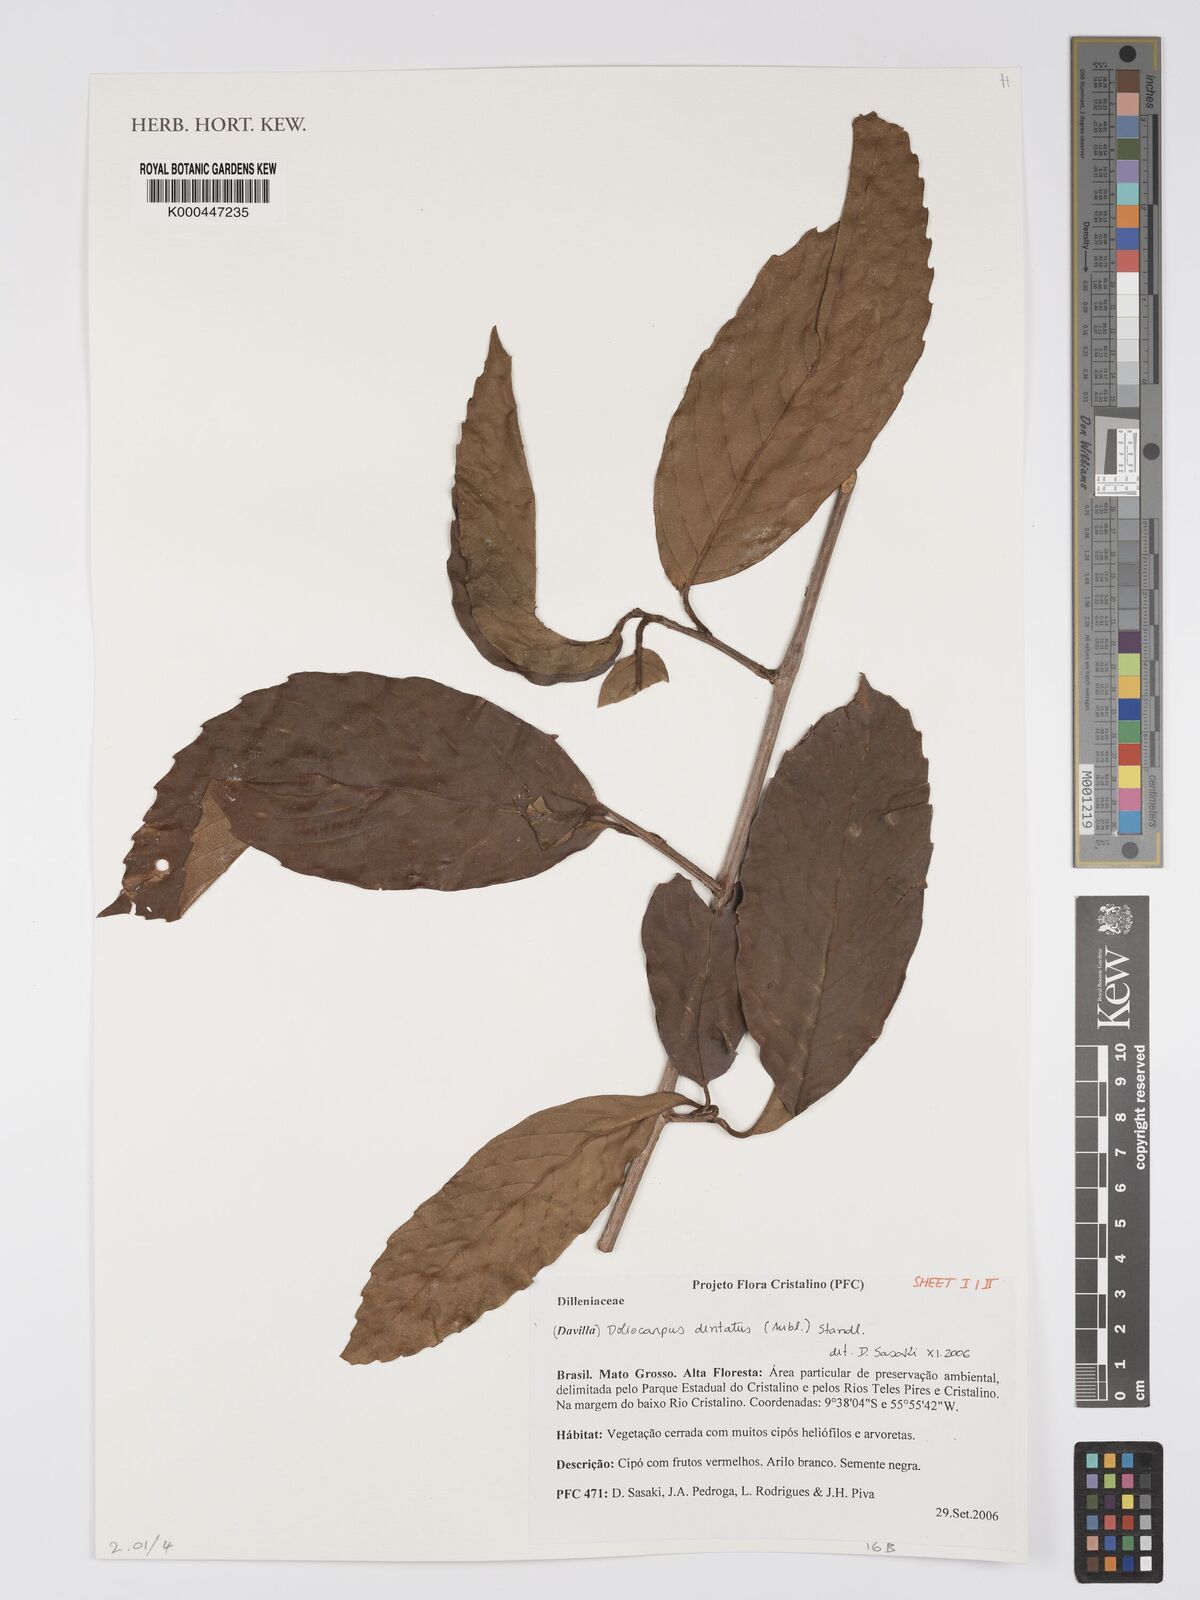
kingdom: Plantae
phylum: Tracheophyta
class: Magnoliopsida
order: Dilleniales
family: Dilleniaceae
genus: Doliocarpus
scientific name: Doliocarpus dentatus
